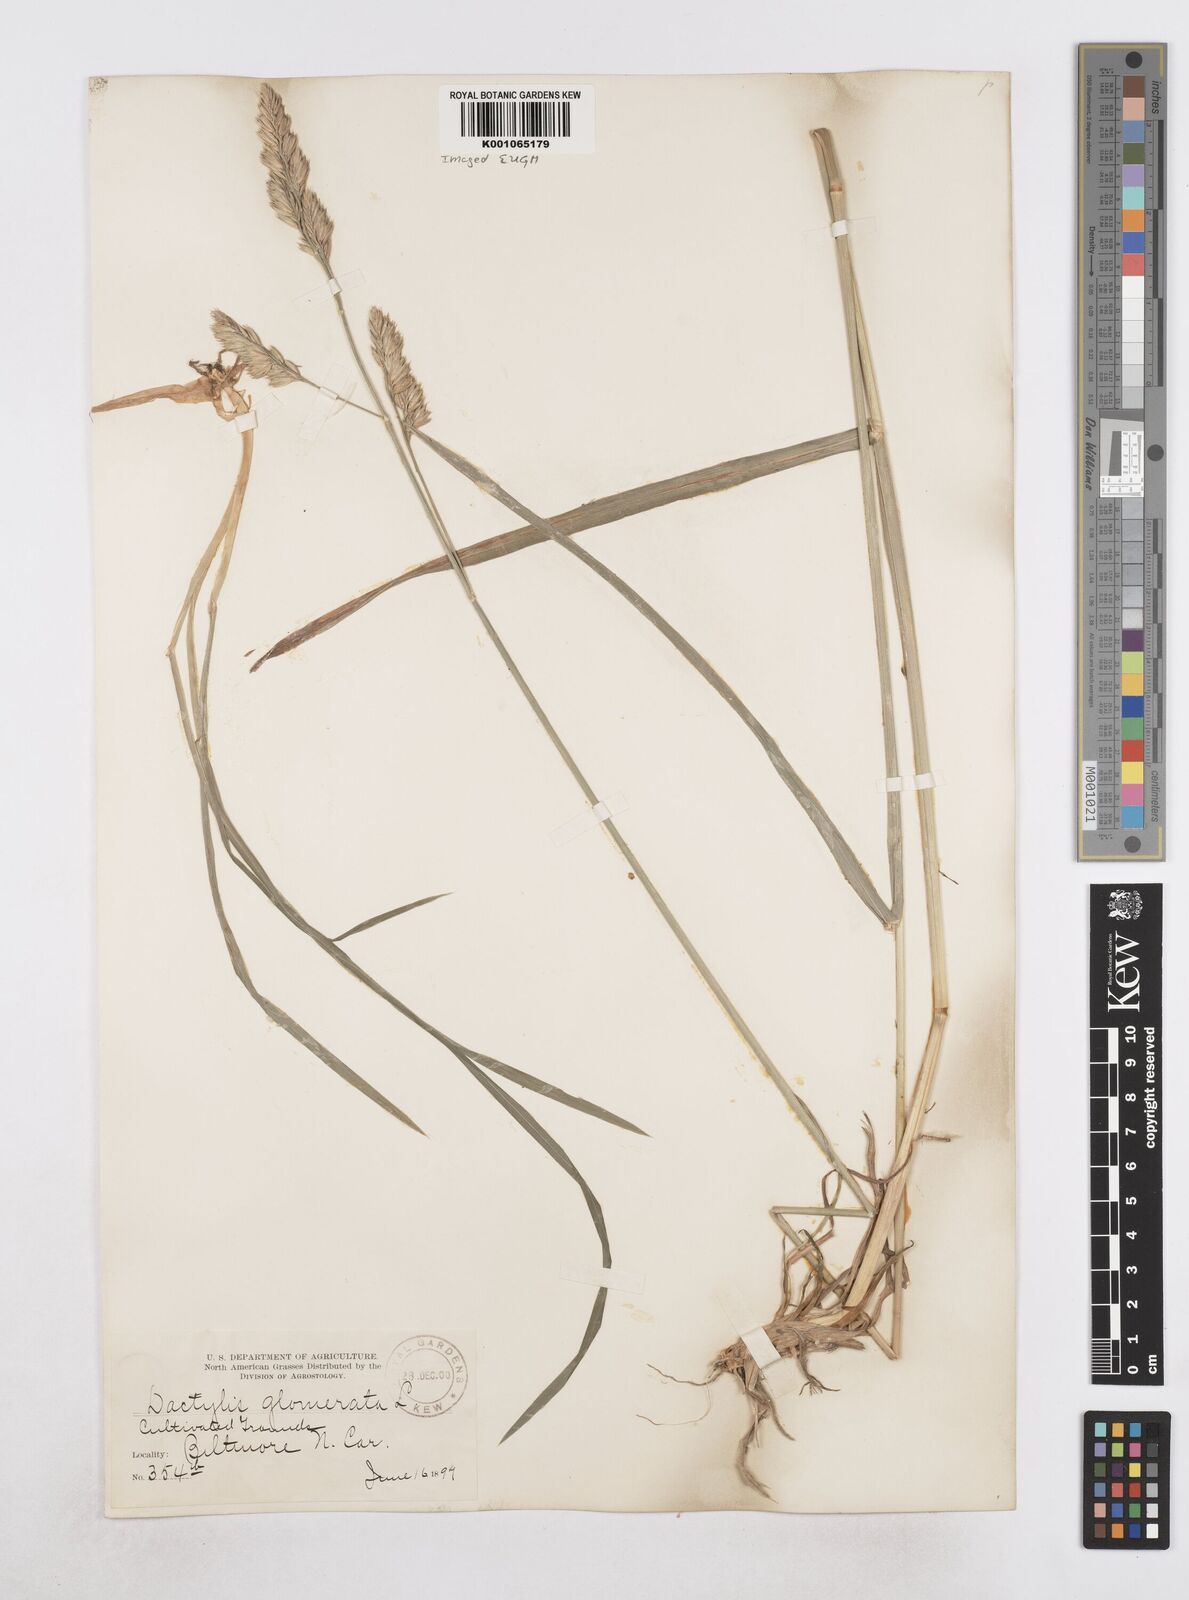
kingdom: Plantae
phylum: Tracheophyta
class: Liliopsida
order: Poales
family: Poaceae
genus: Dactylis
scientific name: Dactylis glomerata
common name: Orchardgrass
